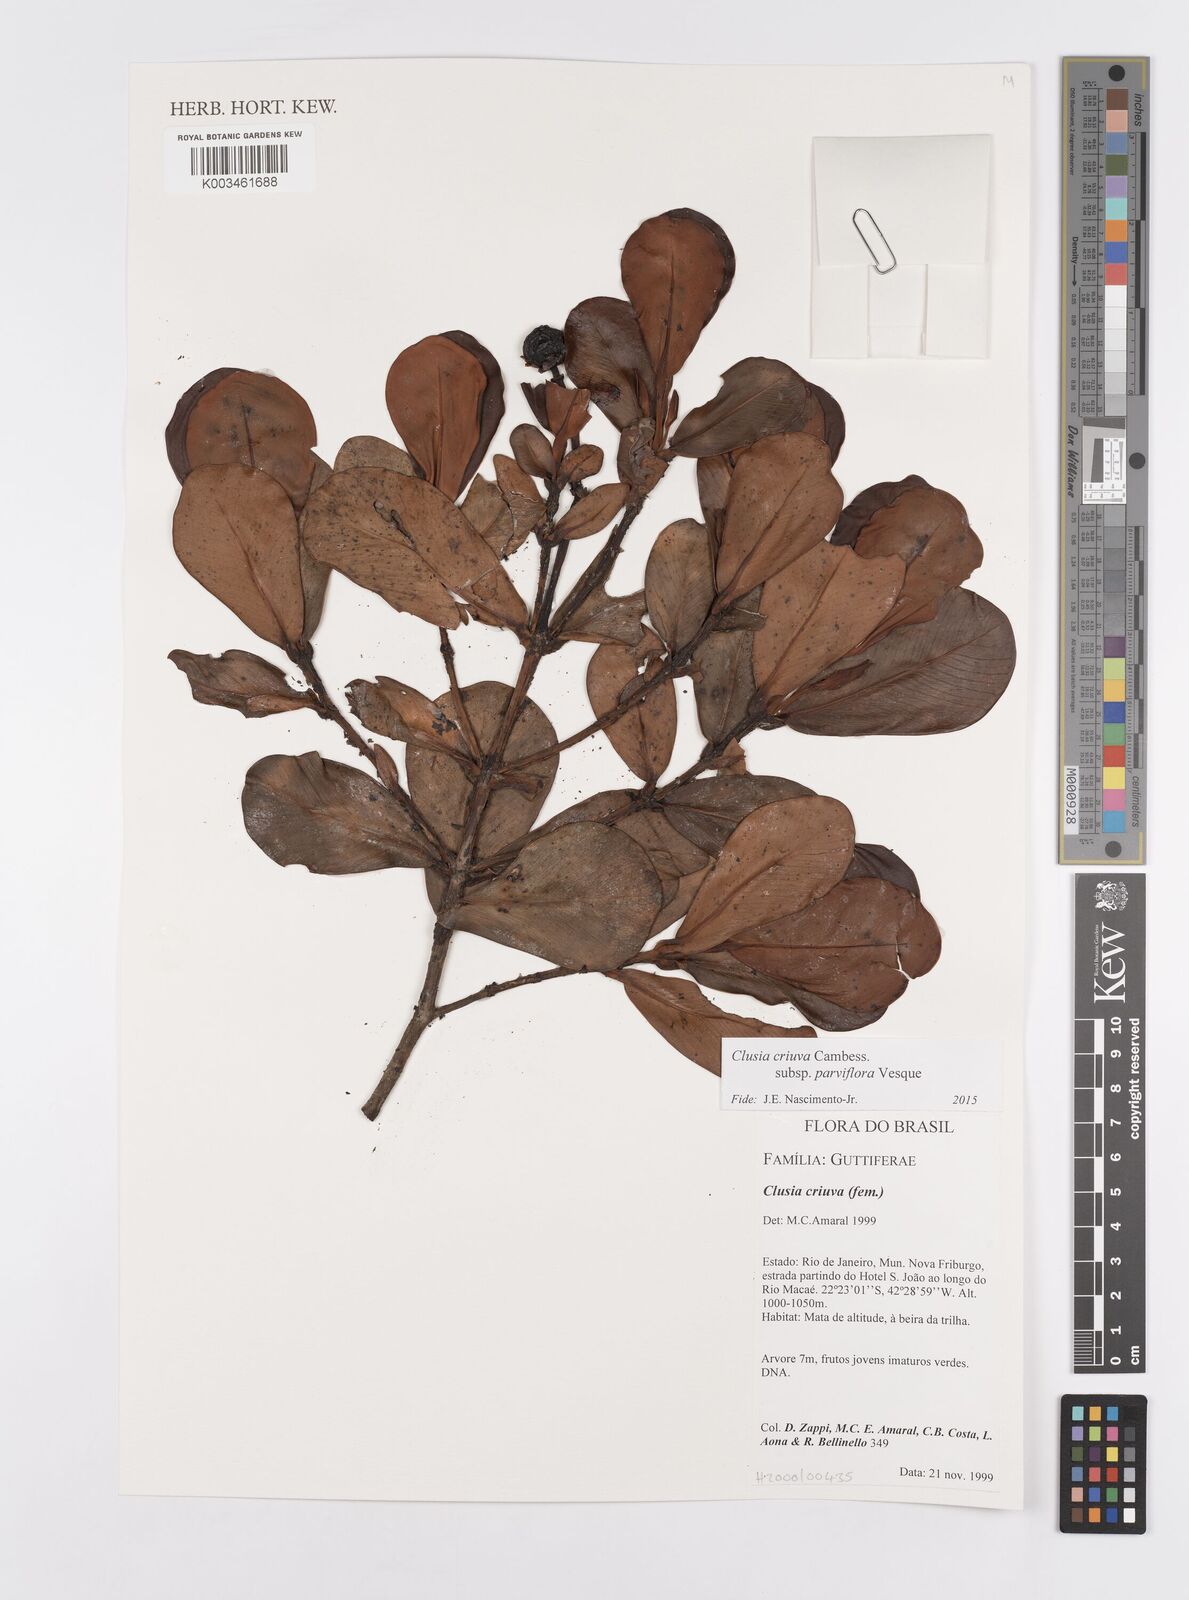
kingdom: Plantae
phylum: Tracheophyta
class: Magnoliopsida
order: Malpighiales
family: Clusiaceae
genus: Clusia
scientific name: Clusia criuva
